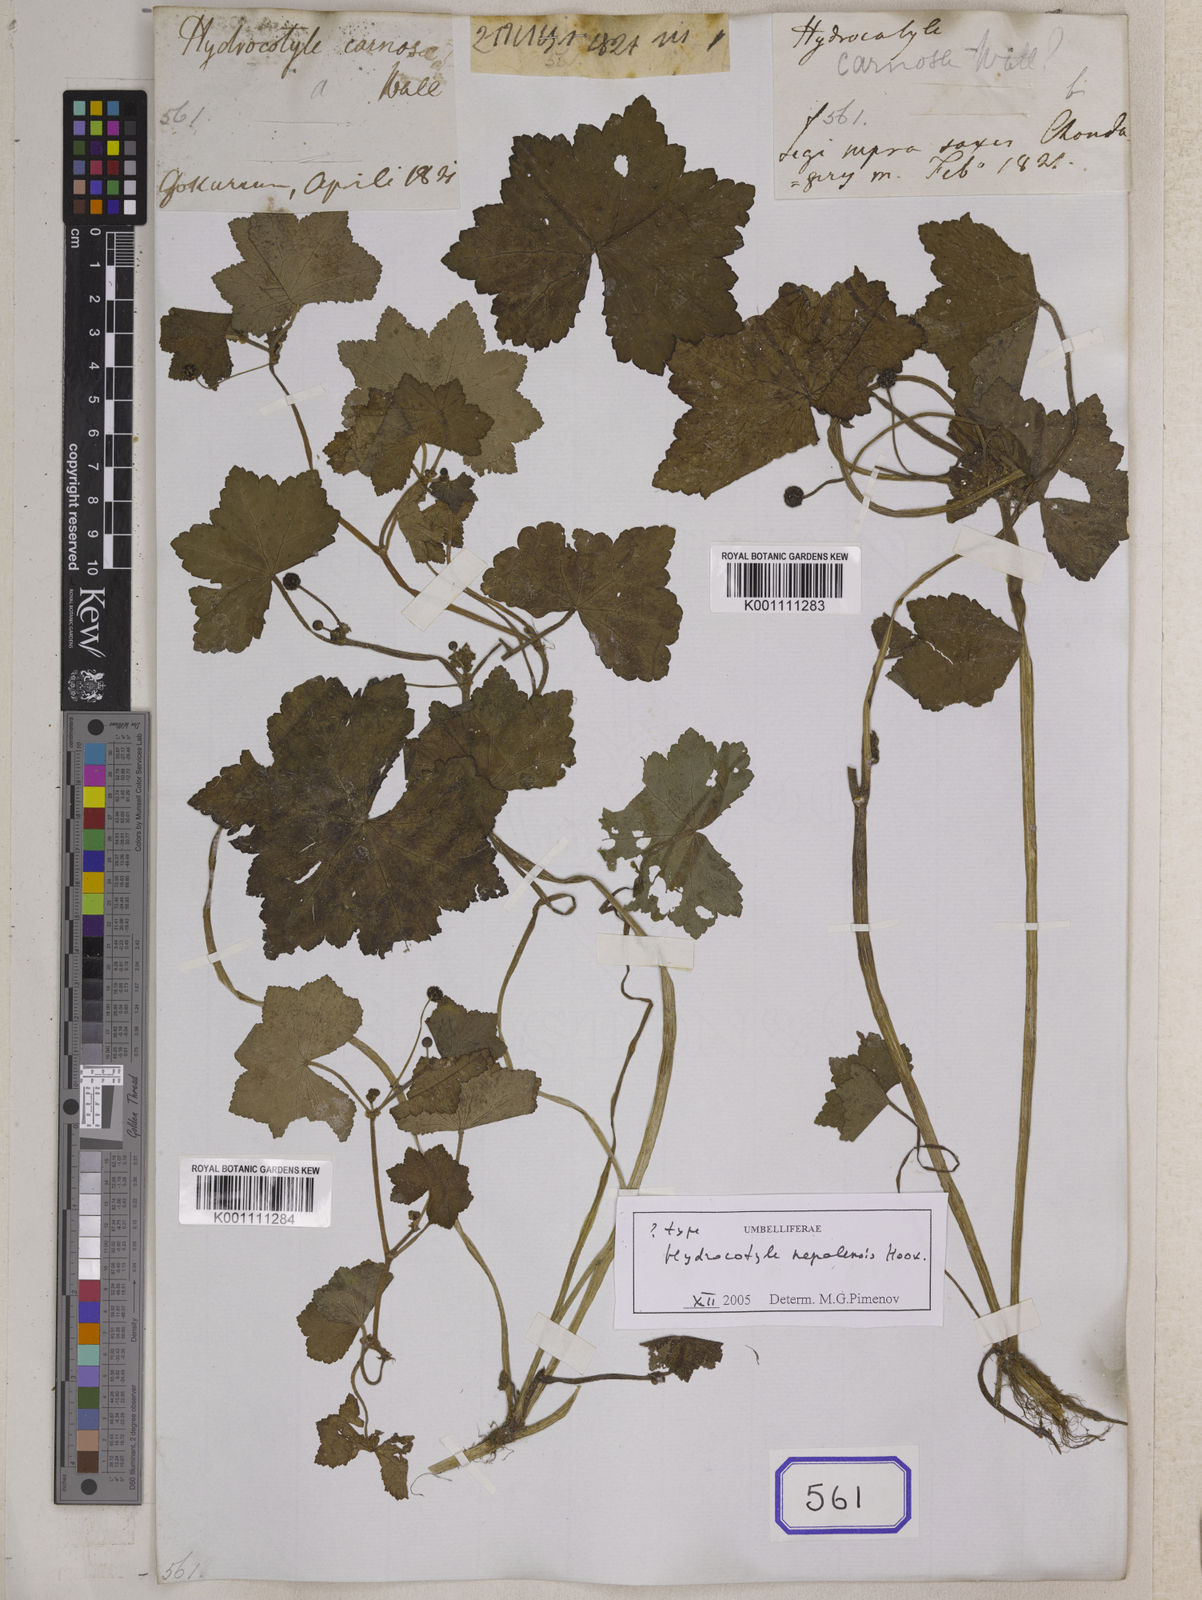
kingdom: Plantae
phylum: Tracheophyta
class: Magnoliopsida
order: Apiales
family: Araliaceae
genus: Hydrocotyle
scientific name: Hydrocotyle nepalensis
